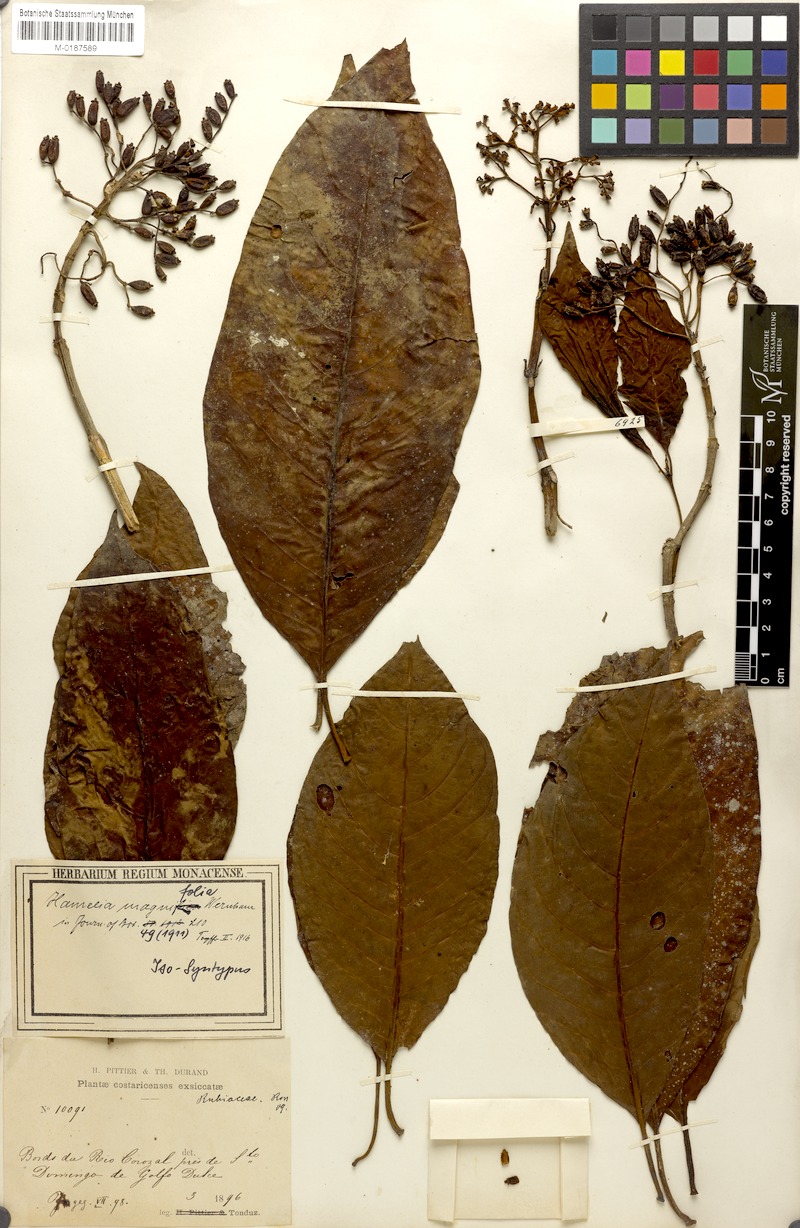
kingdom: Plantae
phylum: Tracheophyta
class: Magnoliopsida
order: Gentianales
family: Rubiaceae
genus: Hamelia
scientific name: Hamelia magnifolia
